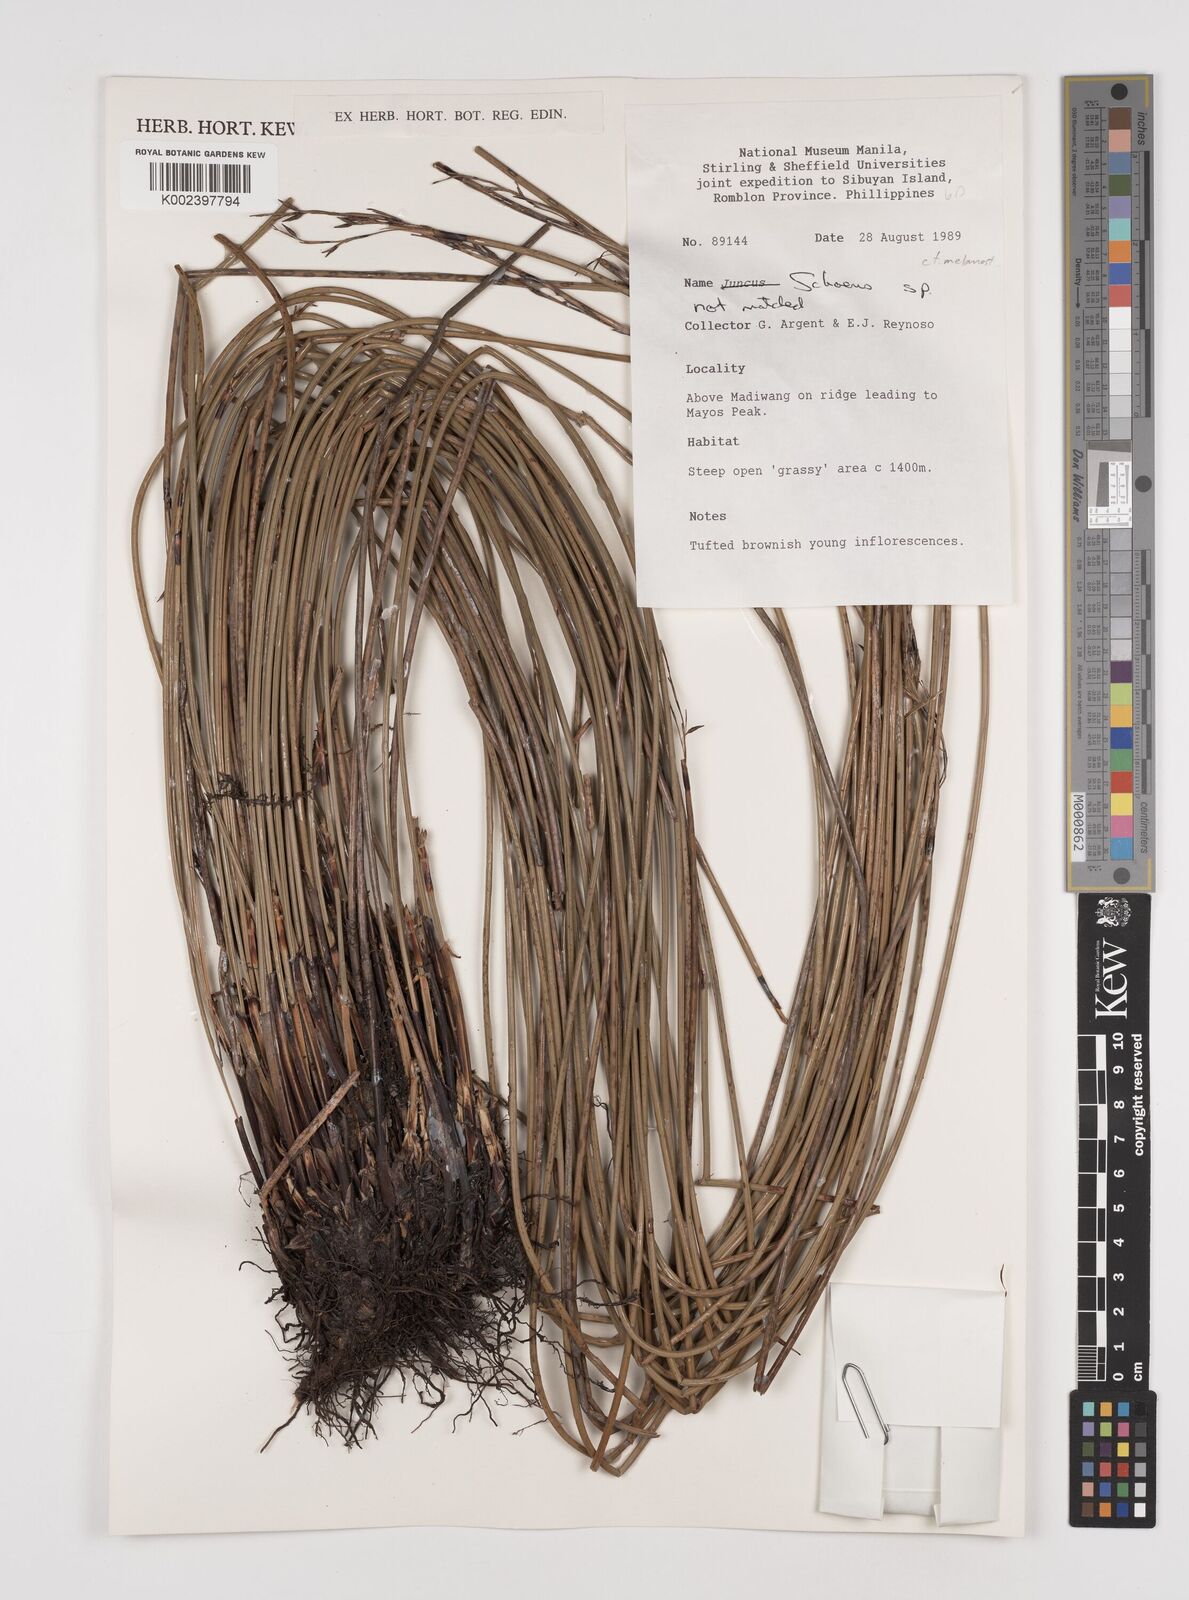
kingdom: Plantae
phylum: Tracheophyta
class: Liliopsida
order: Poales
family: Cyperaceae
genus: Schoenus
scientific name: Schoenus melanostachys
